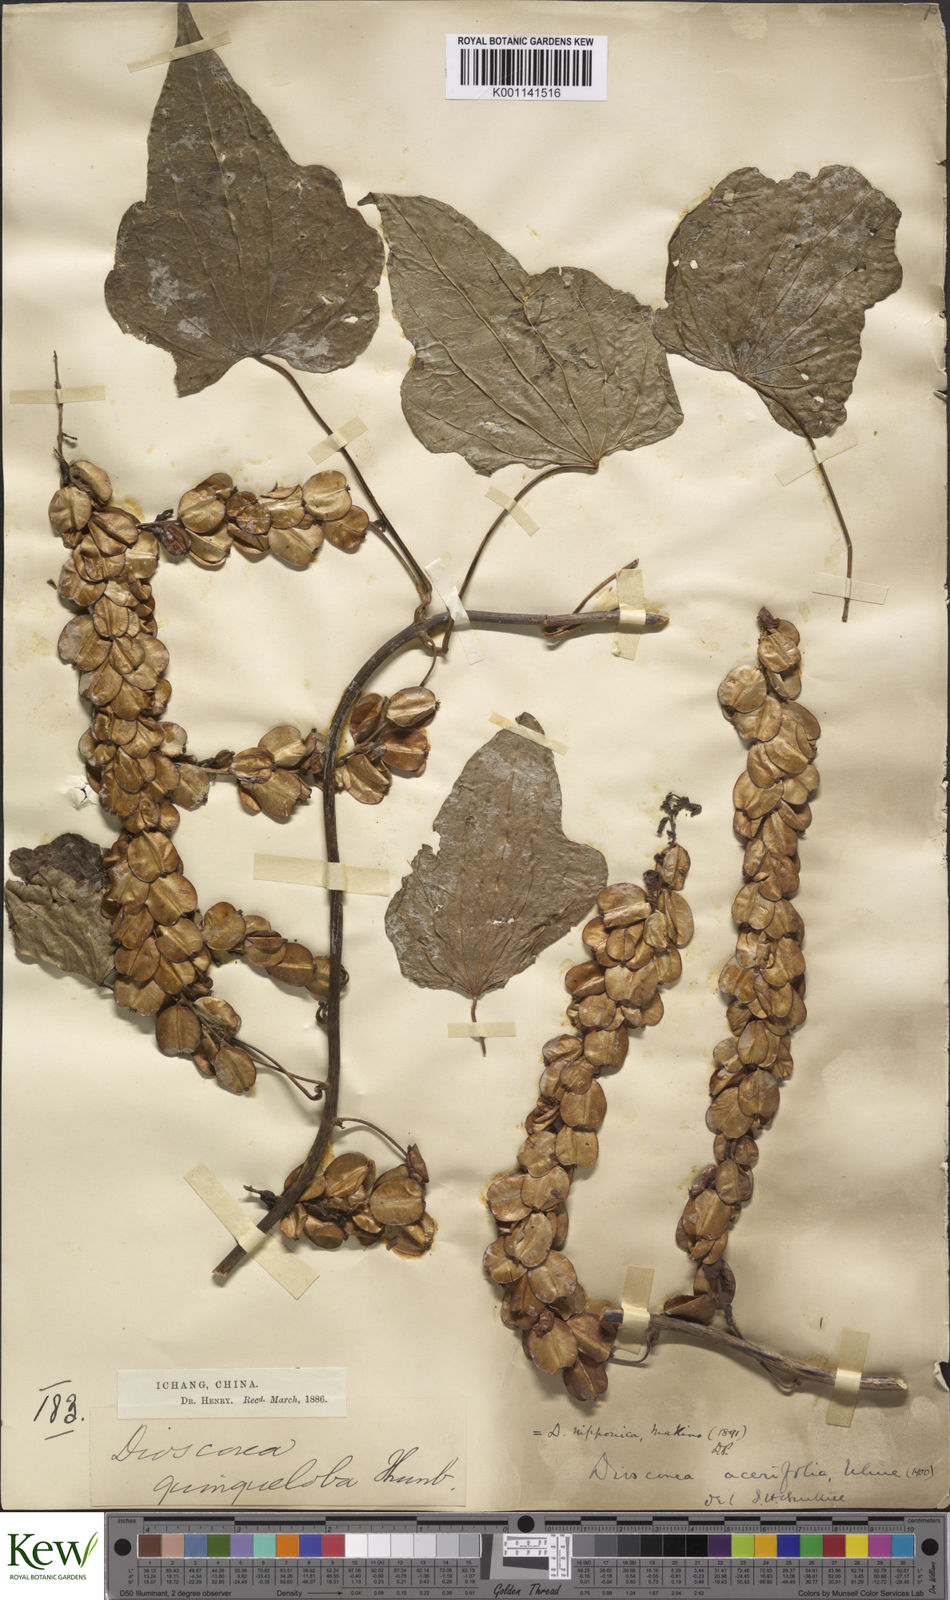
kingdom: Plantae
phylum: Tracheophyta
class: Liliopsida
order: Dioscoreales
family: Dioscoreaceae
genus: Dioscorea
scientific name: Dioscorea nipponica
